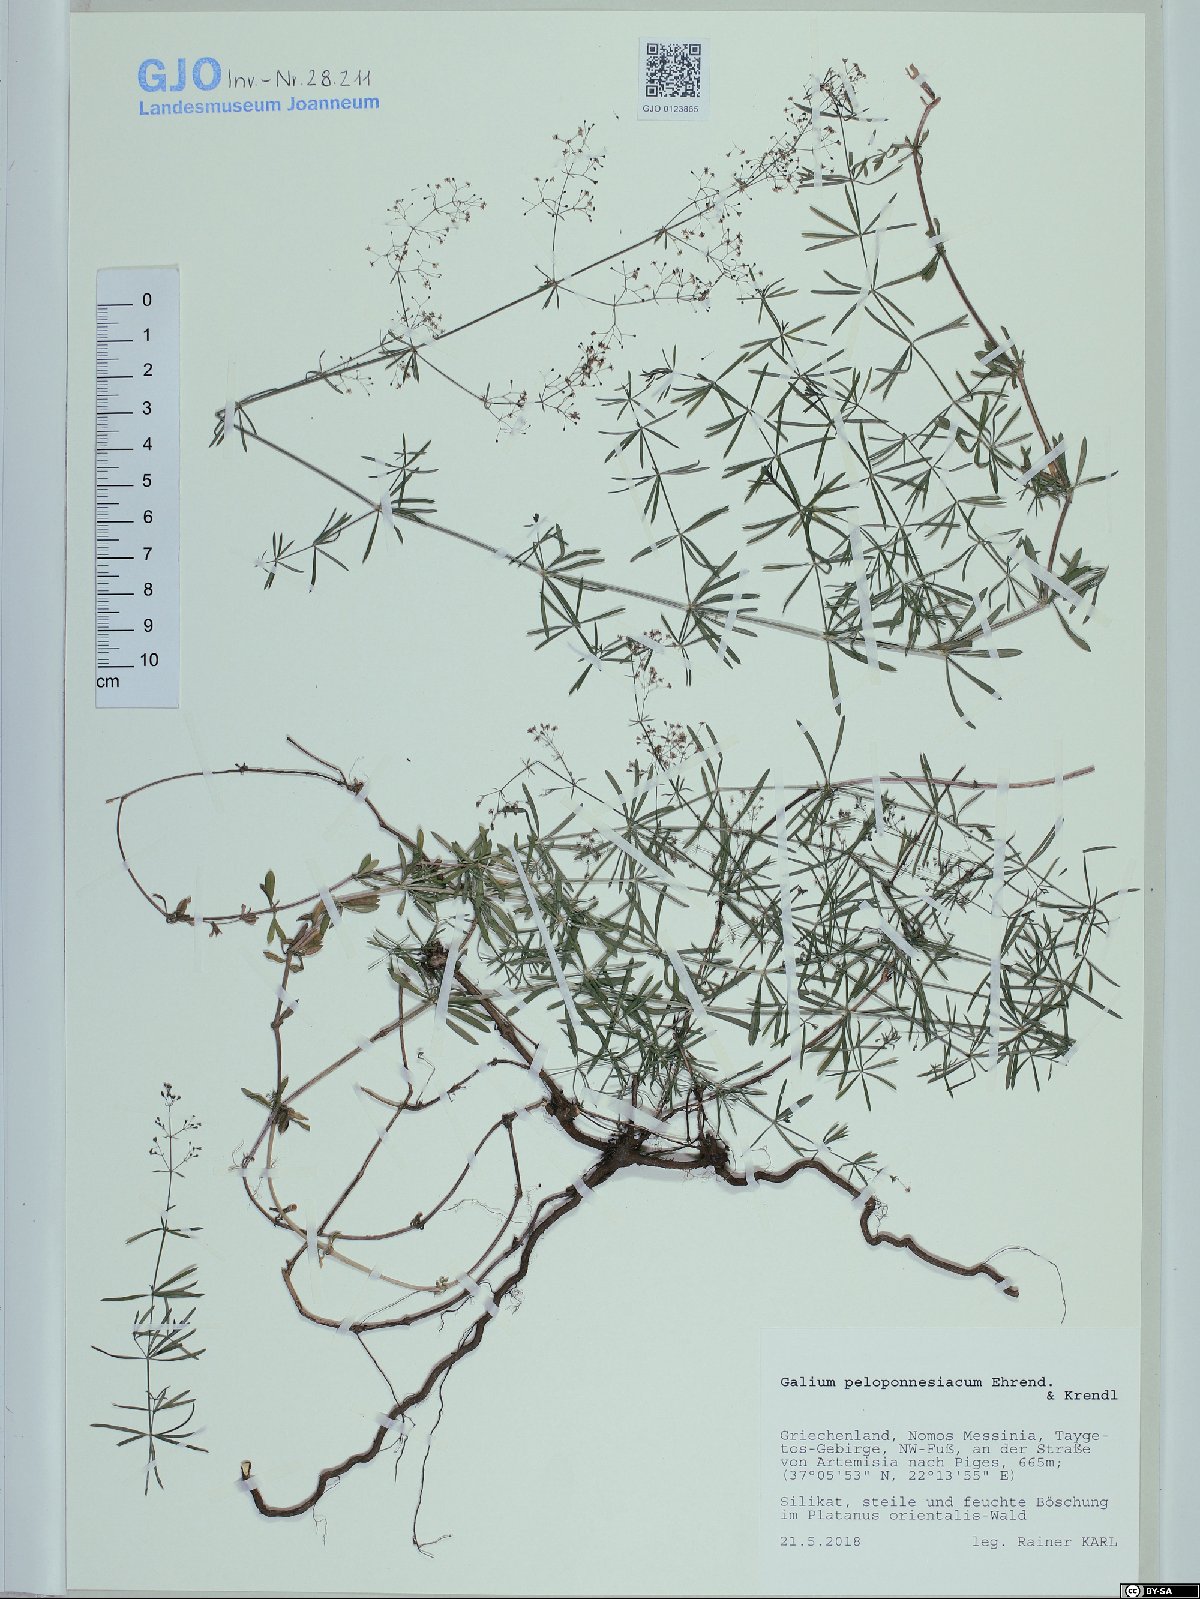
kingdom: Plantae
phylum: Tracheophyta
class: Magnoliopsida
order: Gentianales
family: Rubiaceae
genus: Galium
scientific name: Galium peloponnesiacum
